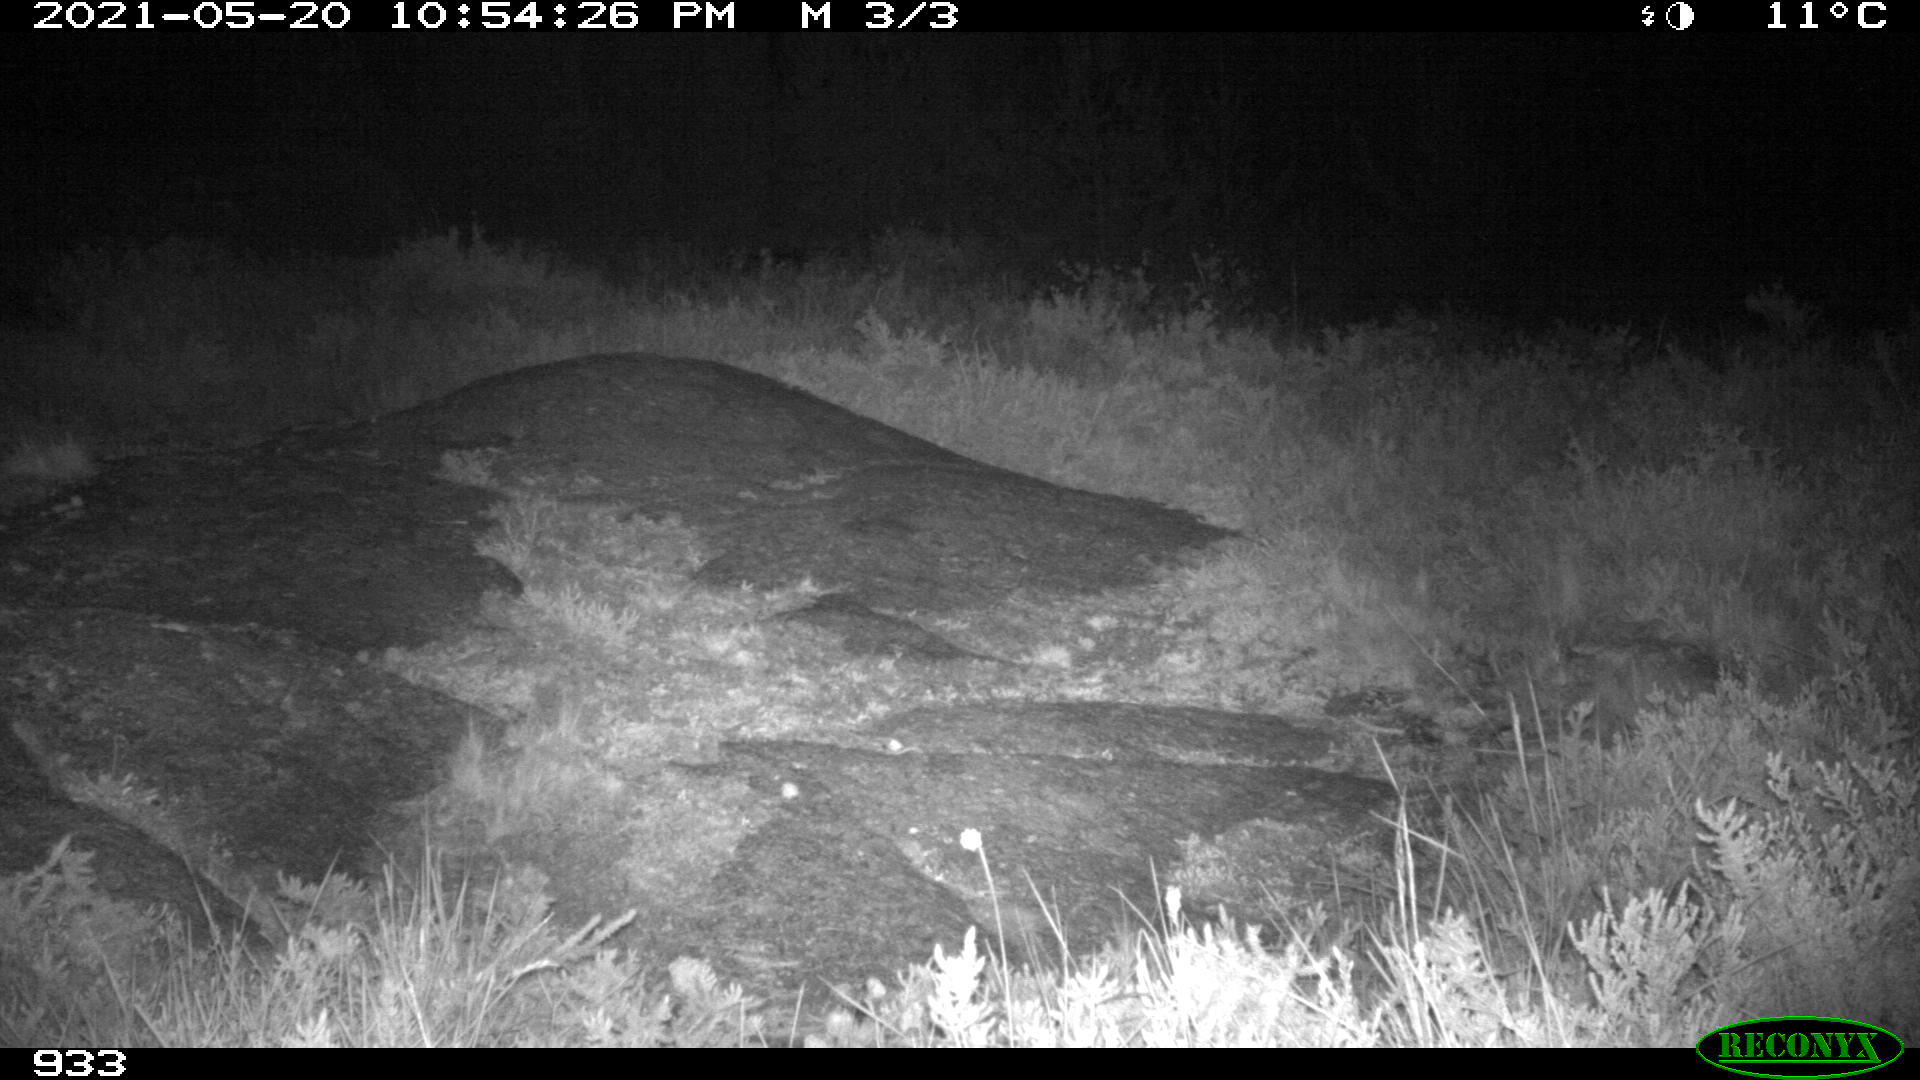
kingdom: Animalia
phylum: Chordata
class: Mammalia
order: Artiodactyla
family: Suidae
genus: Sus
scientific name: Sus scrofa
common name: Wild boar
